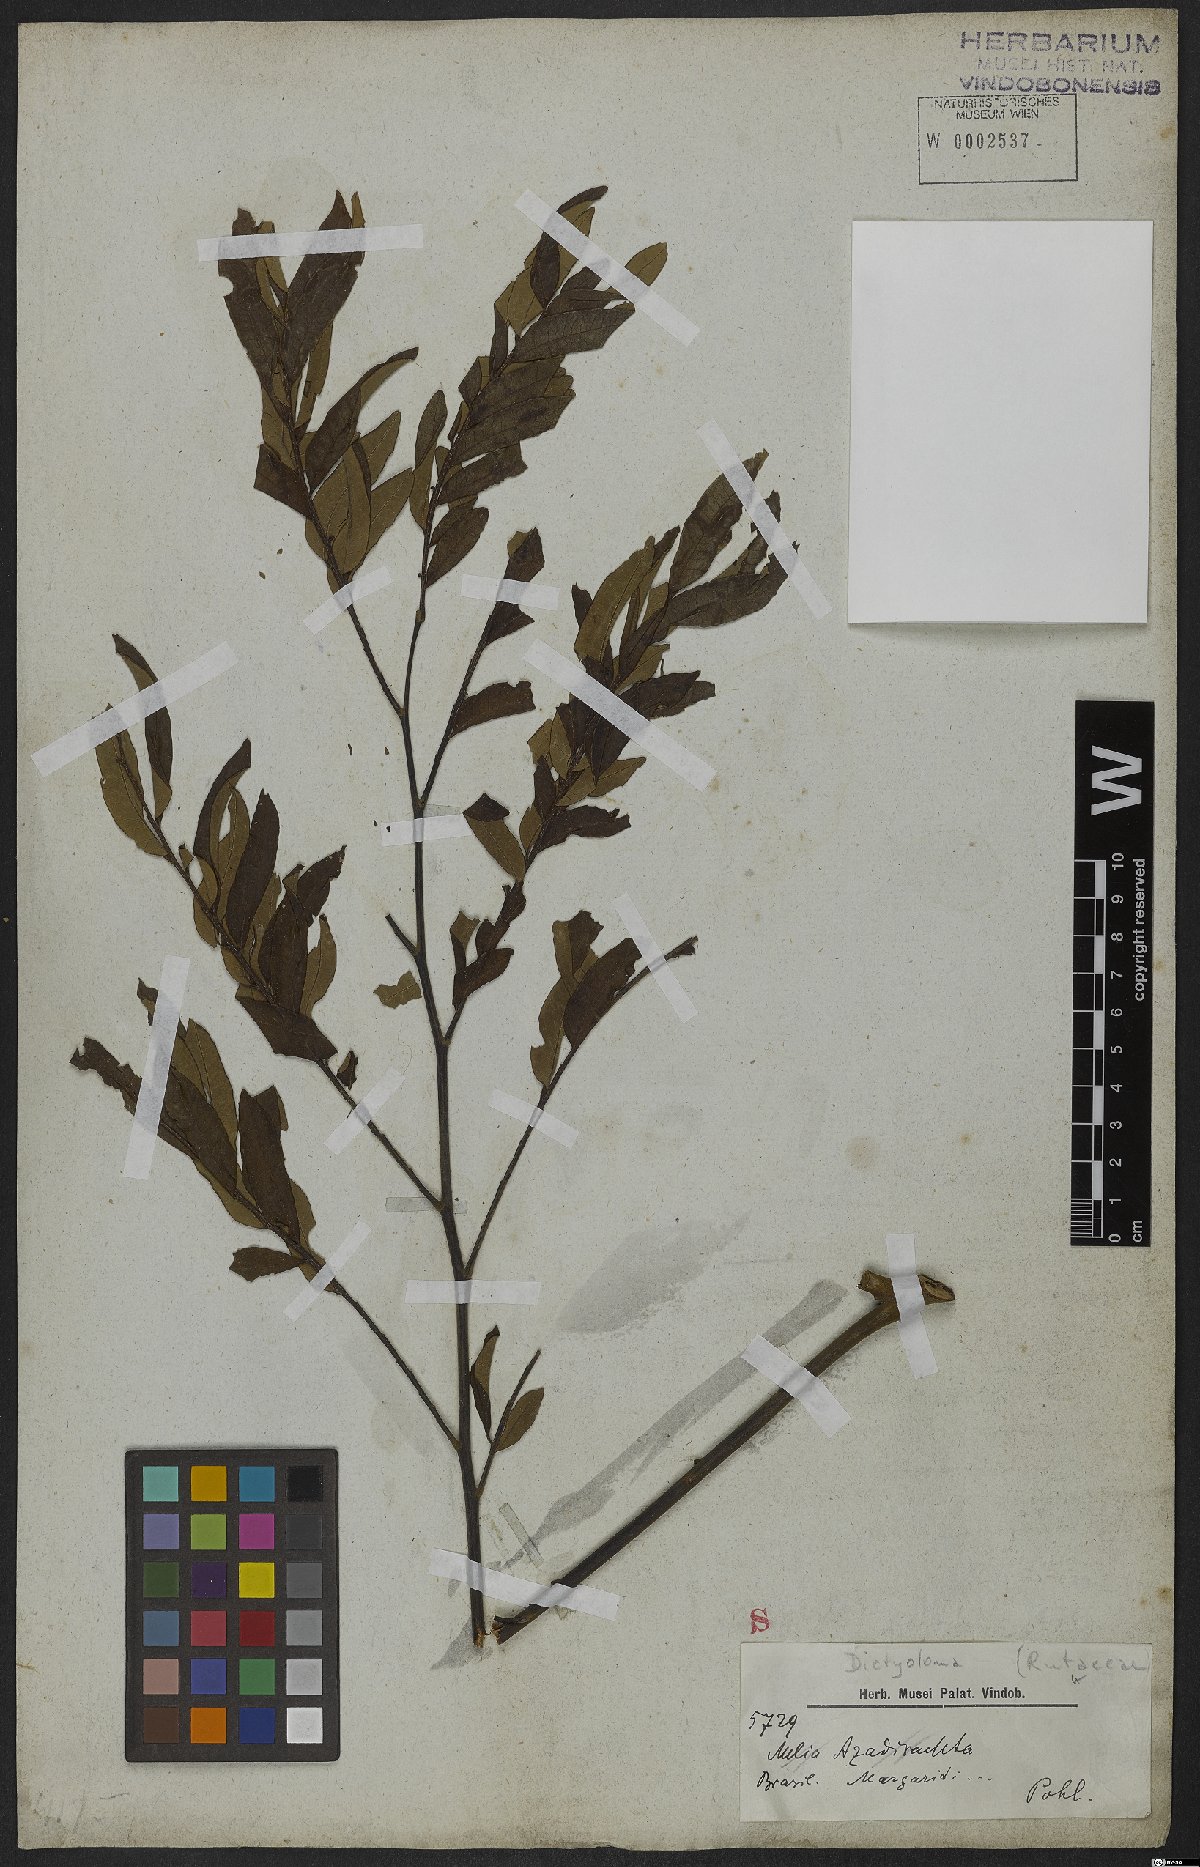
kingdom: Plantae
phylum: Tracheophyta
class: Magnoliopsida
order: Sapindales
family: Rutaceae
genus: Dictyoloma
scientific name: Dictyoloma
